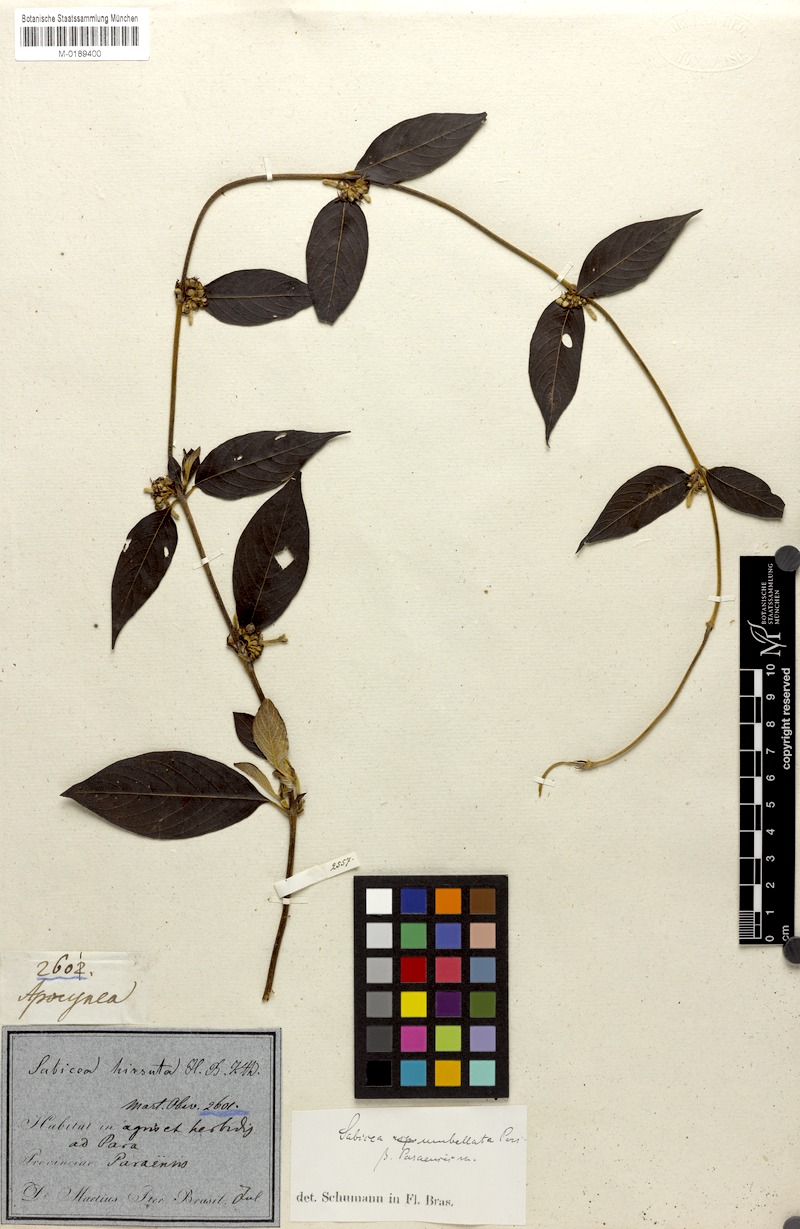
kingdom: Plantae
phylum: Tracheophyta
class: Magnoliopsida
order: Gentianales
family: Rubiaceae
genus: Sabicea
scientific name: Sabicea panamensis
